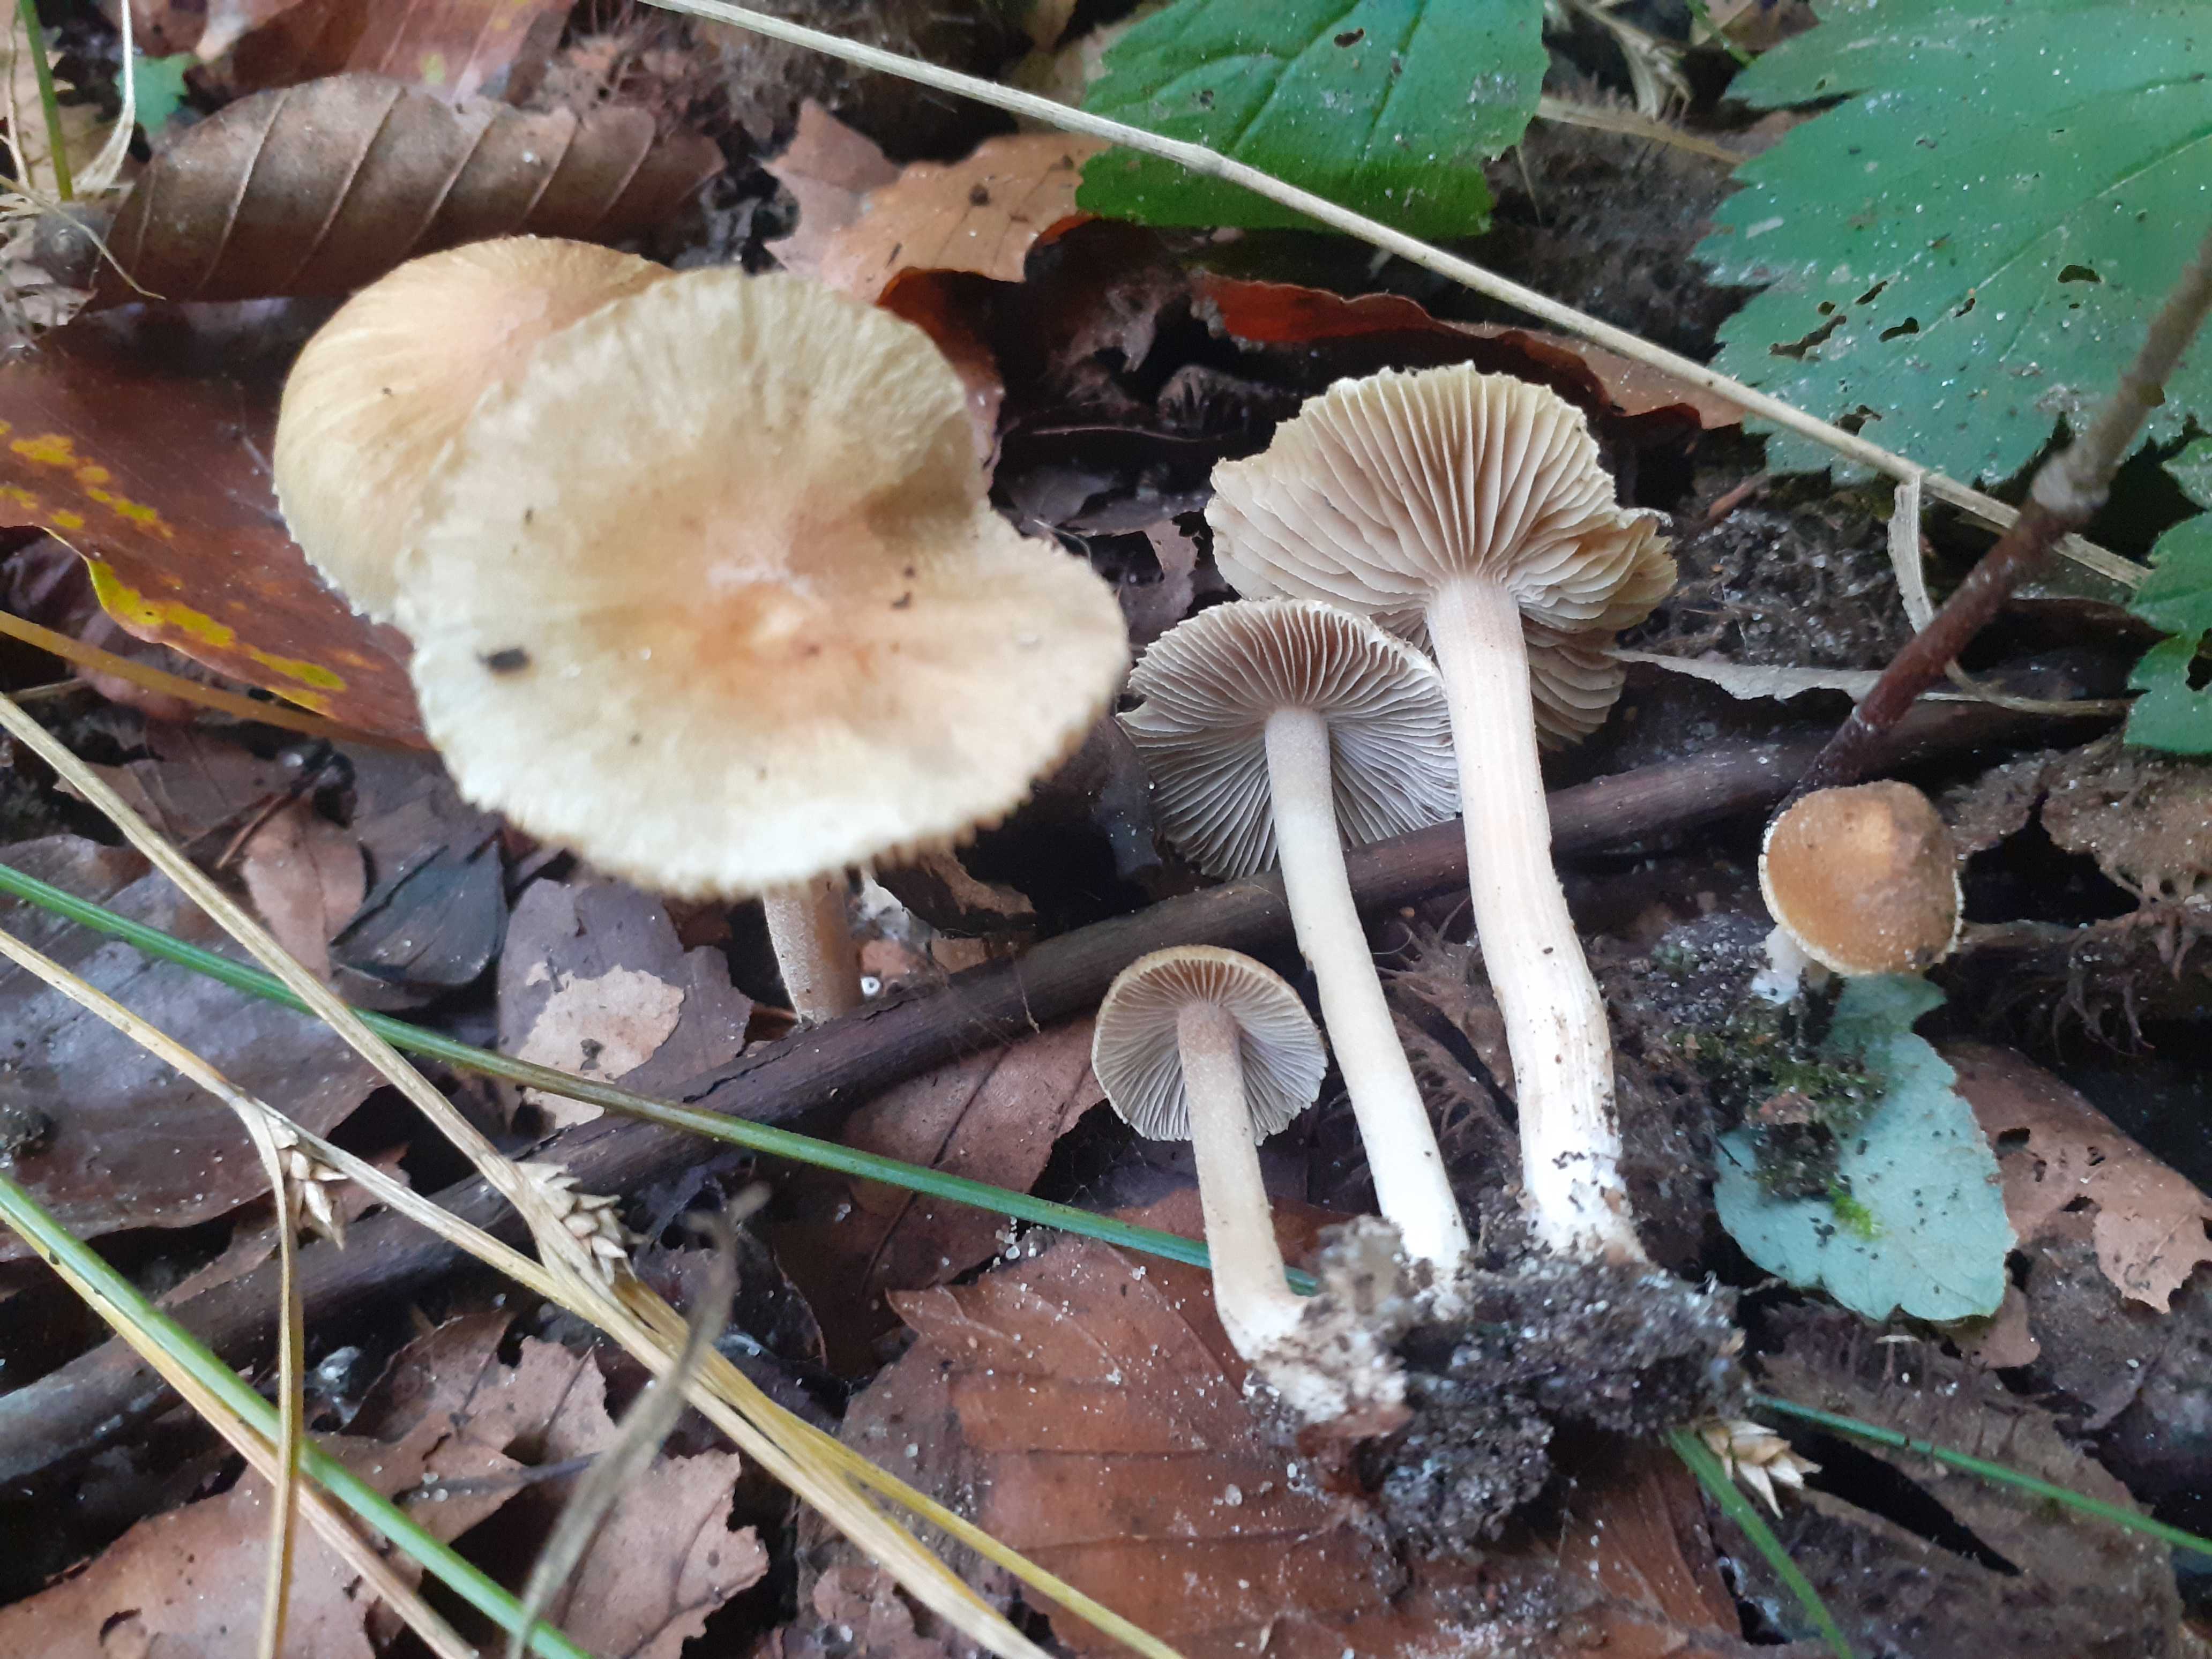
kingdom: Fungi
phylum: Basidiomycota
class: Agaricomycetes
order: Agaricales
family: Inocybaceae
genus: Inocybe
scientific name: Inocybe hirtella
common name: mandel-trævlhat
